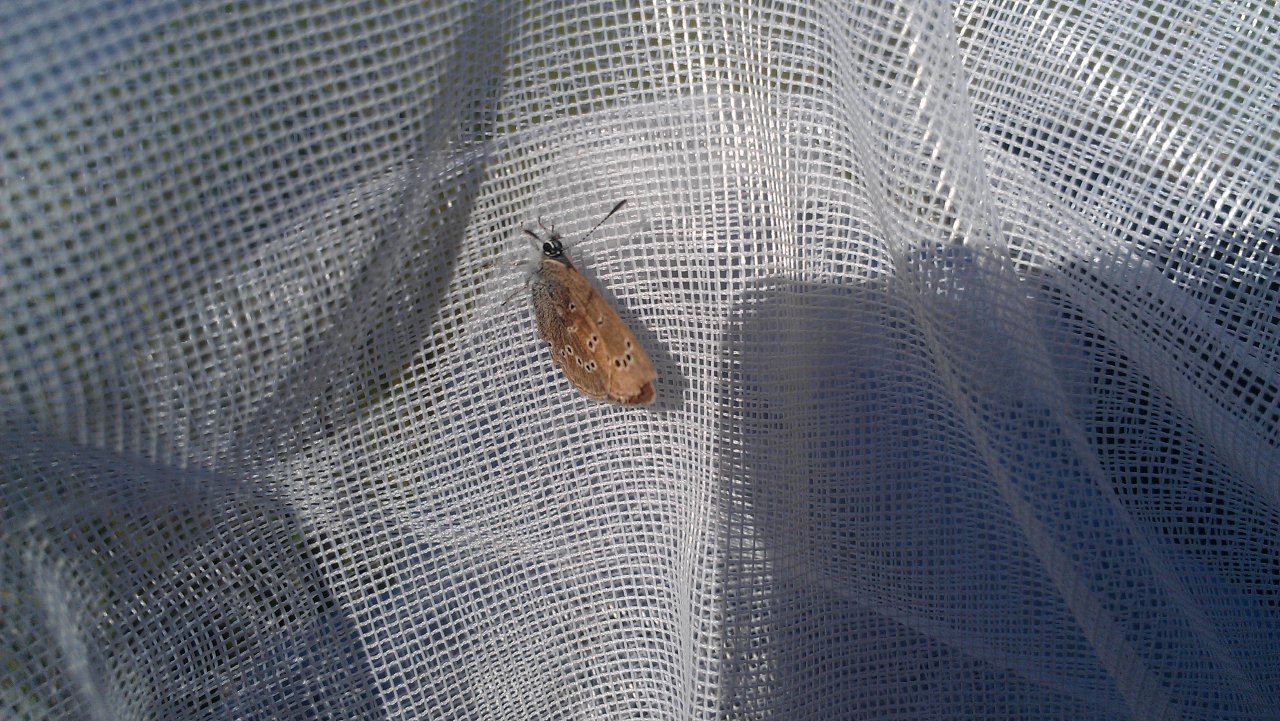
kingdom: Animalia
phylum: Arthropoda
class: Insecta
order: Lepidoptera
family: Lycaenidae
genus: Glaucopsyche
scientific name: Glaucopsyche lygdamus
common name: Silvery Blue
